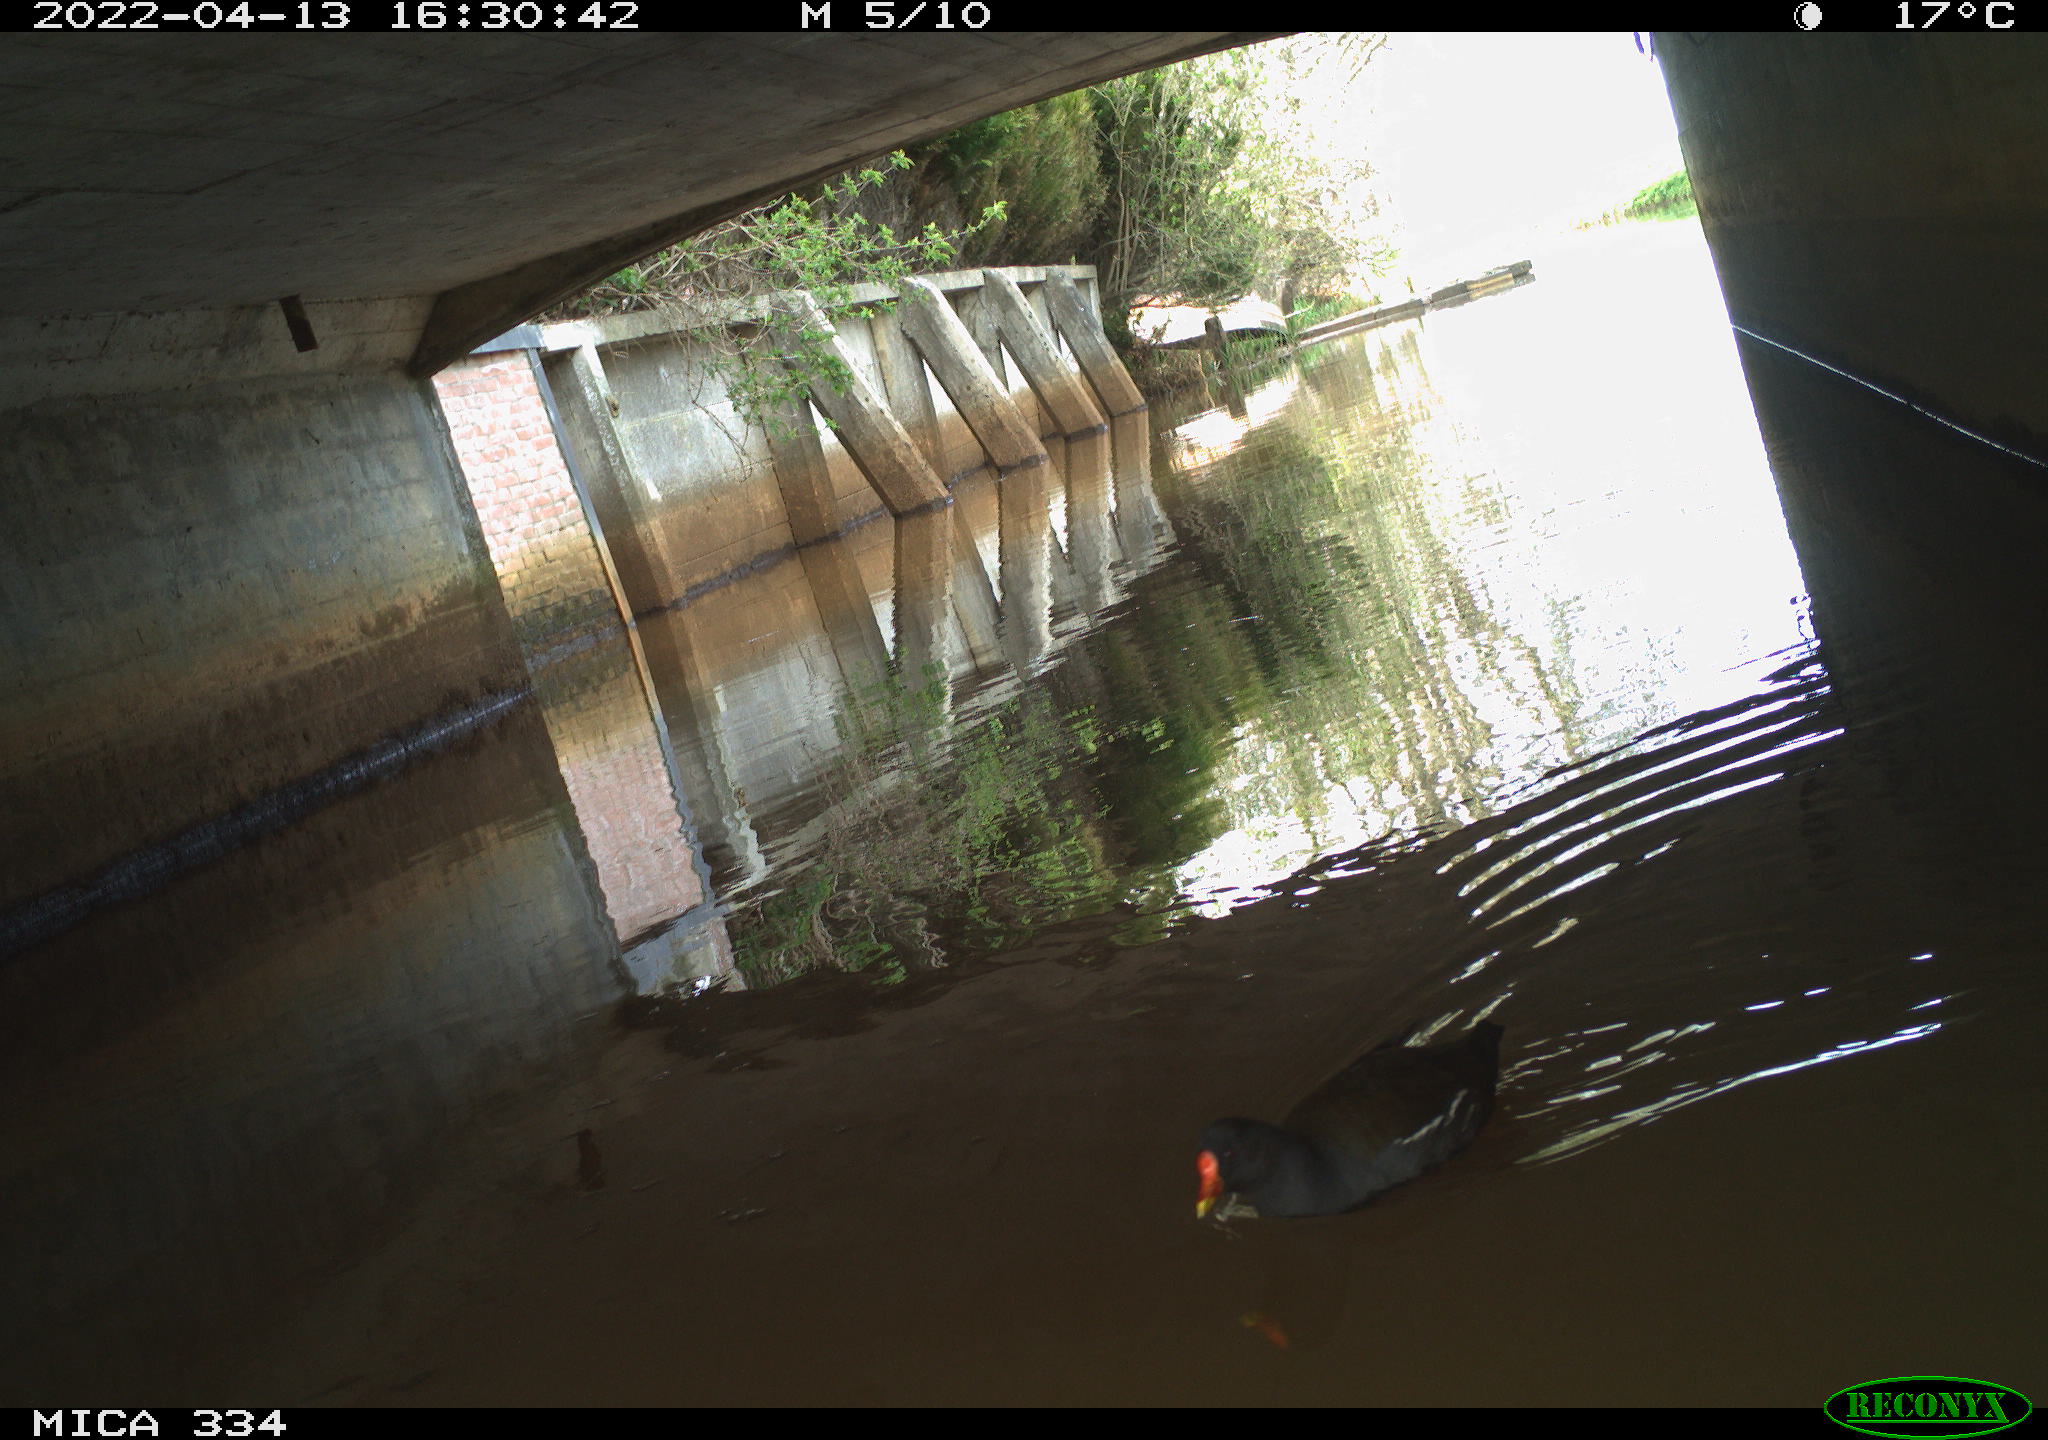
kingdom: Animalia
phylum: Chordata
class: Aves
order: Gruiformes
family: Rallidae
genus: Gallinula
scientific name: Gallinula chloropus
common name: Common moorhen
